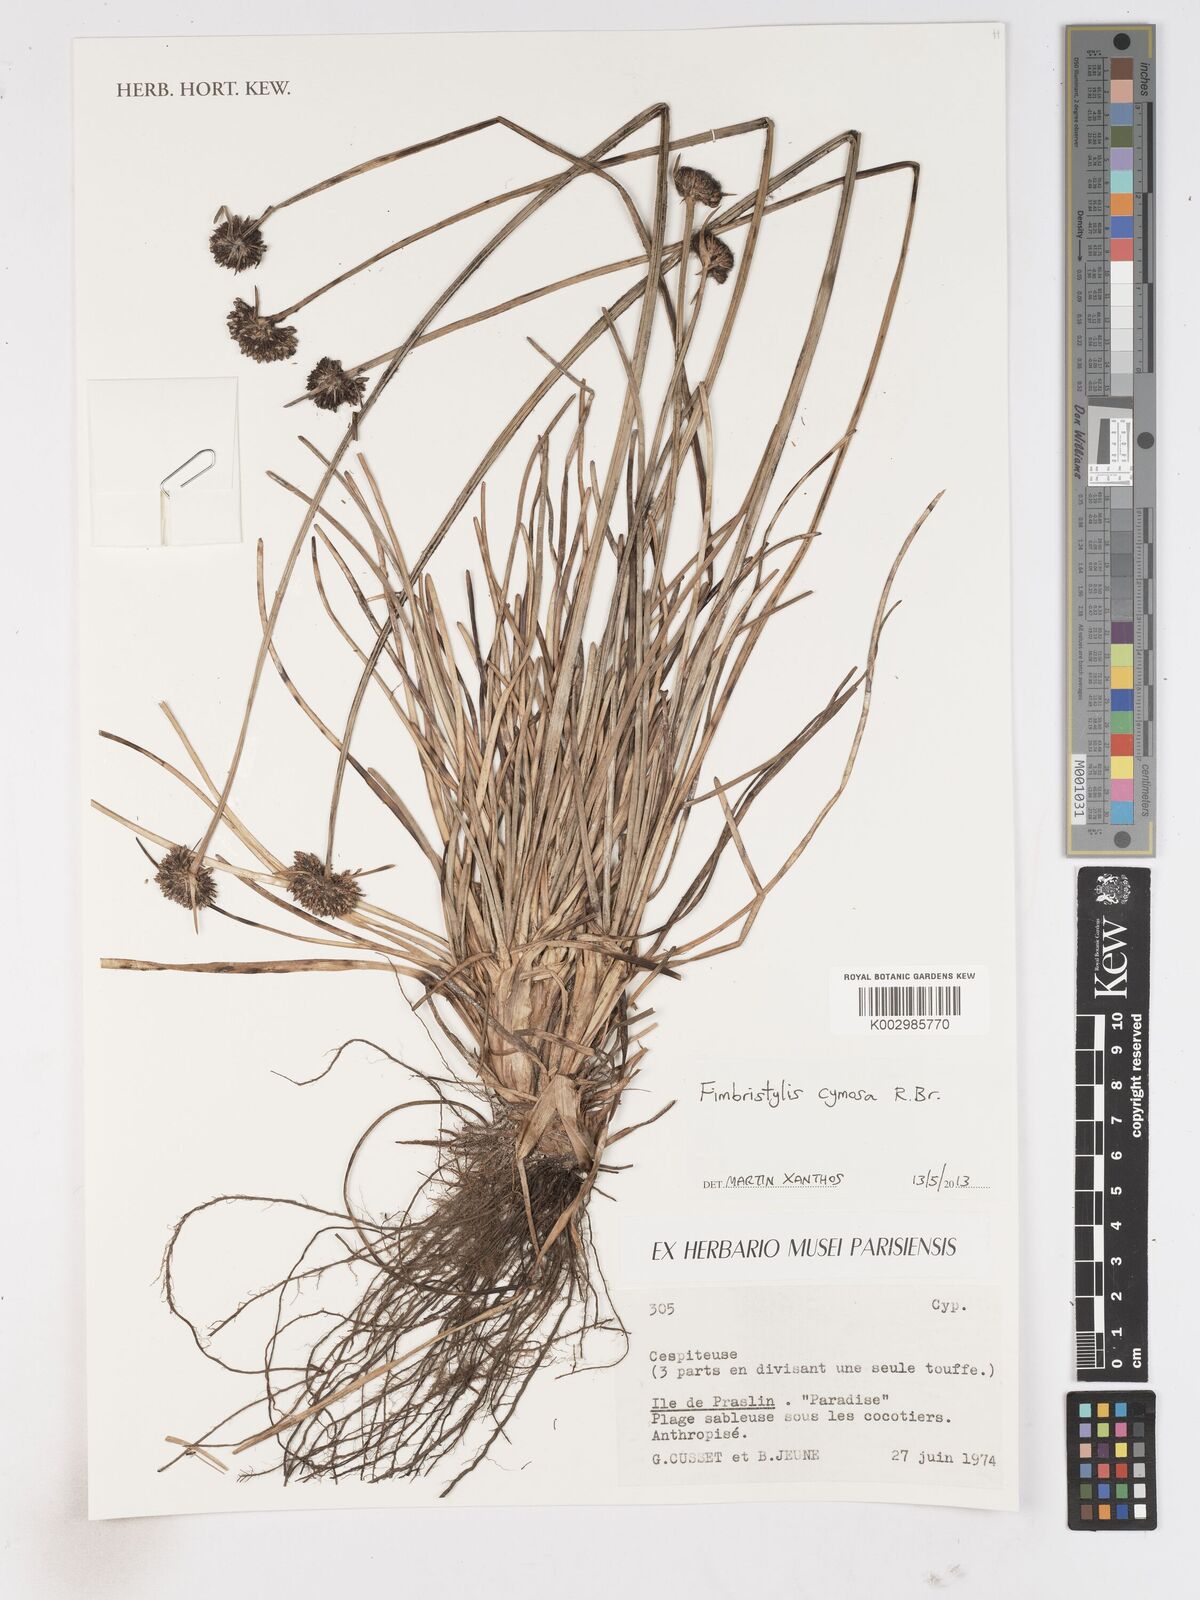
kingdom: Plantae
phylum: Tracheophyta
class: Liliopsida
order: Poales
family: Cyperaceae
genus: Fimbristylis
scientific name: Fimbristylis cymosa
